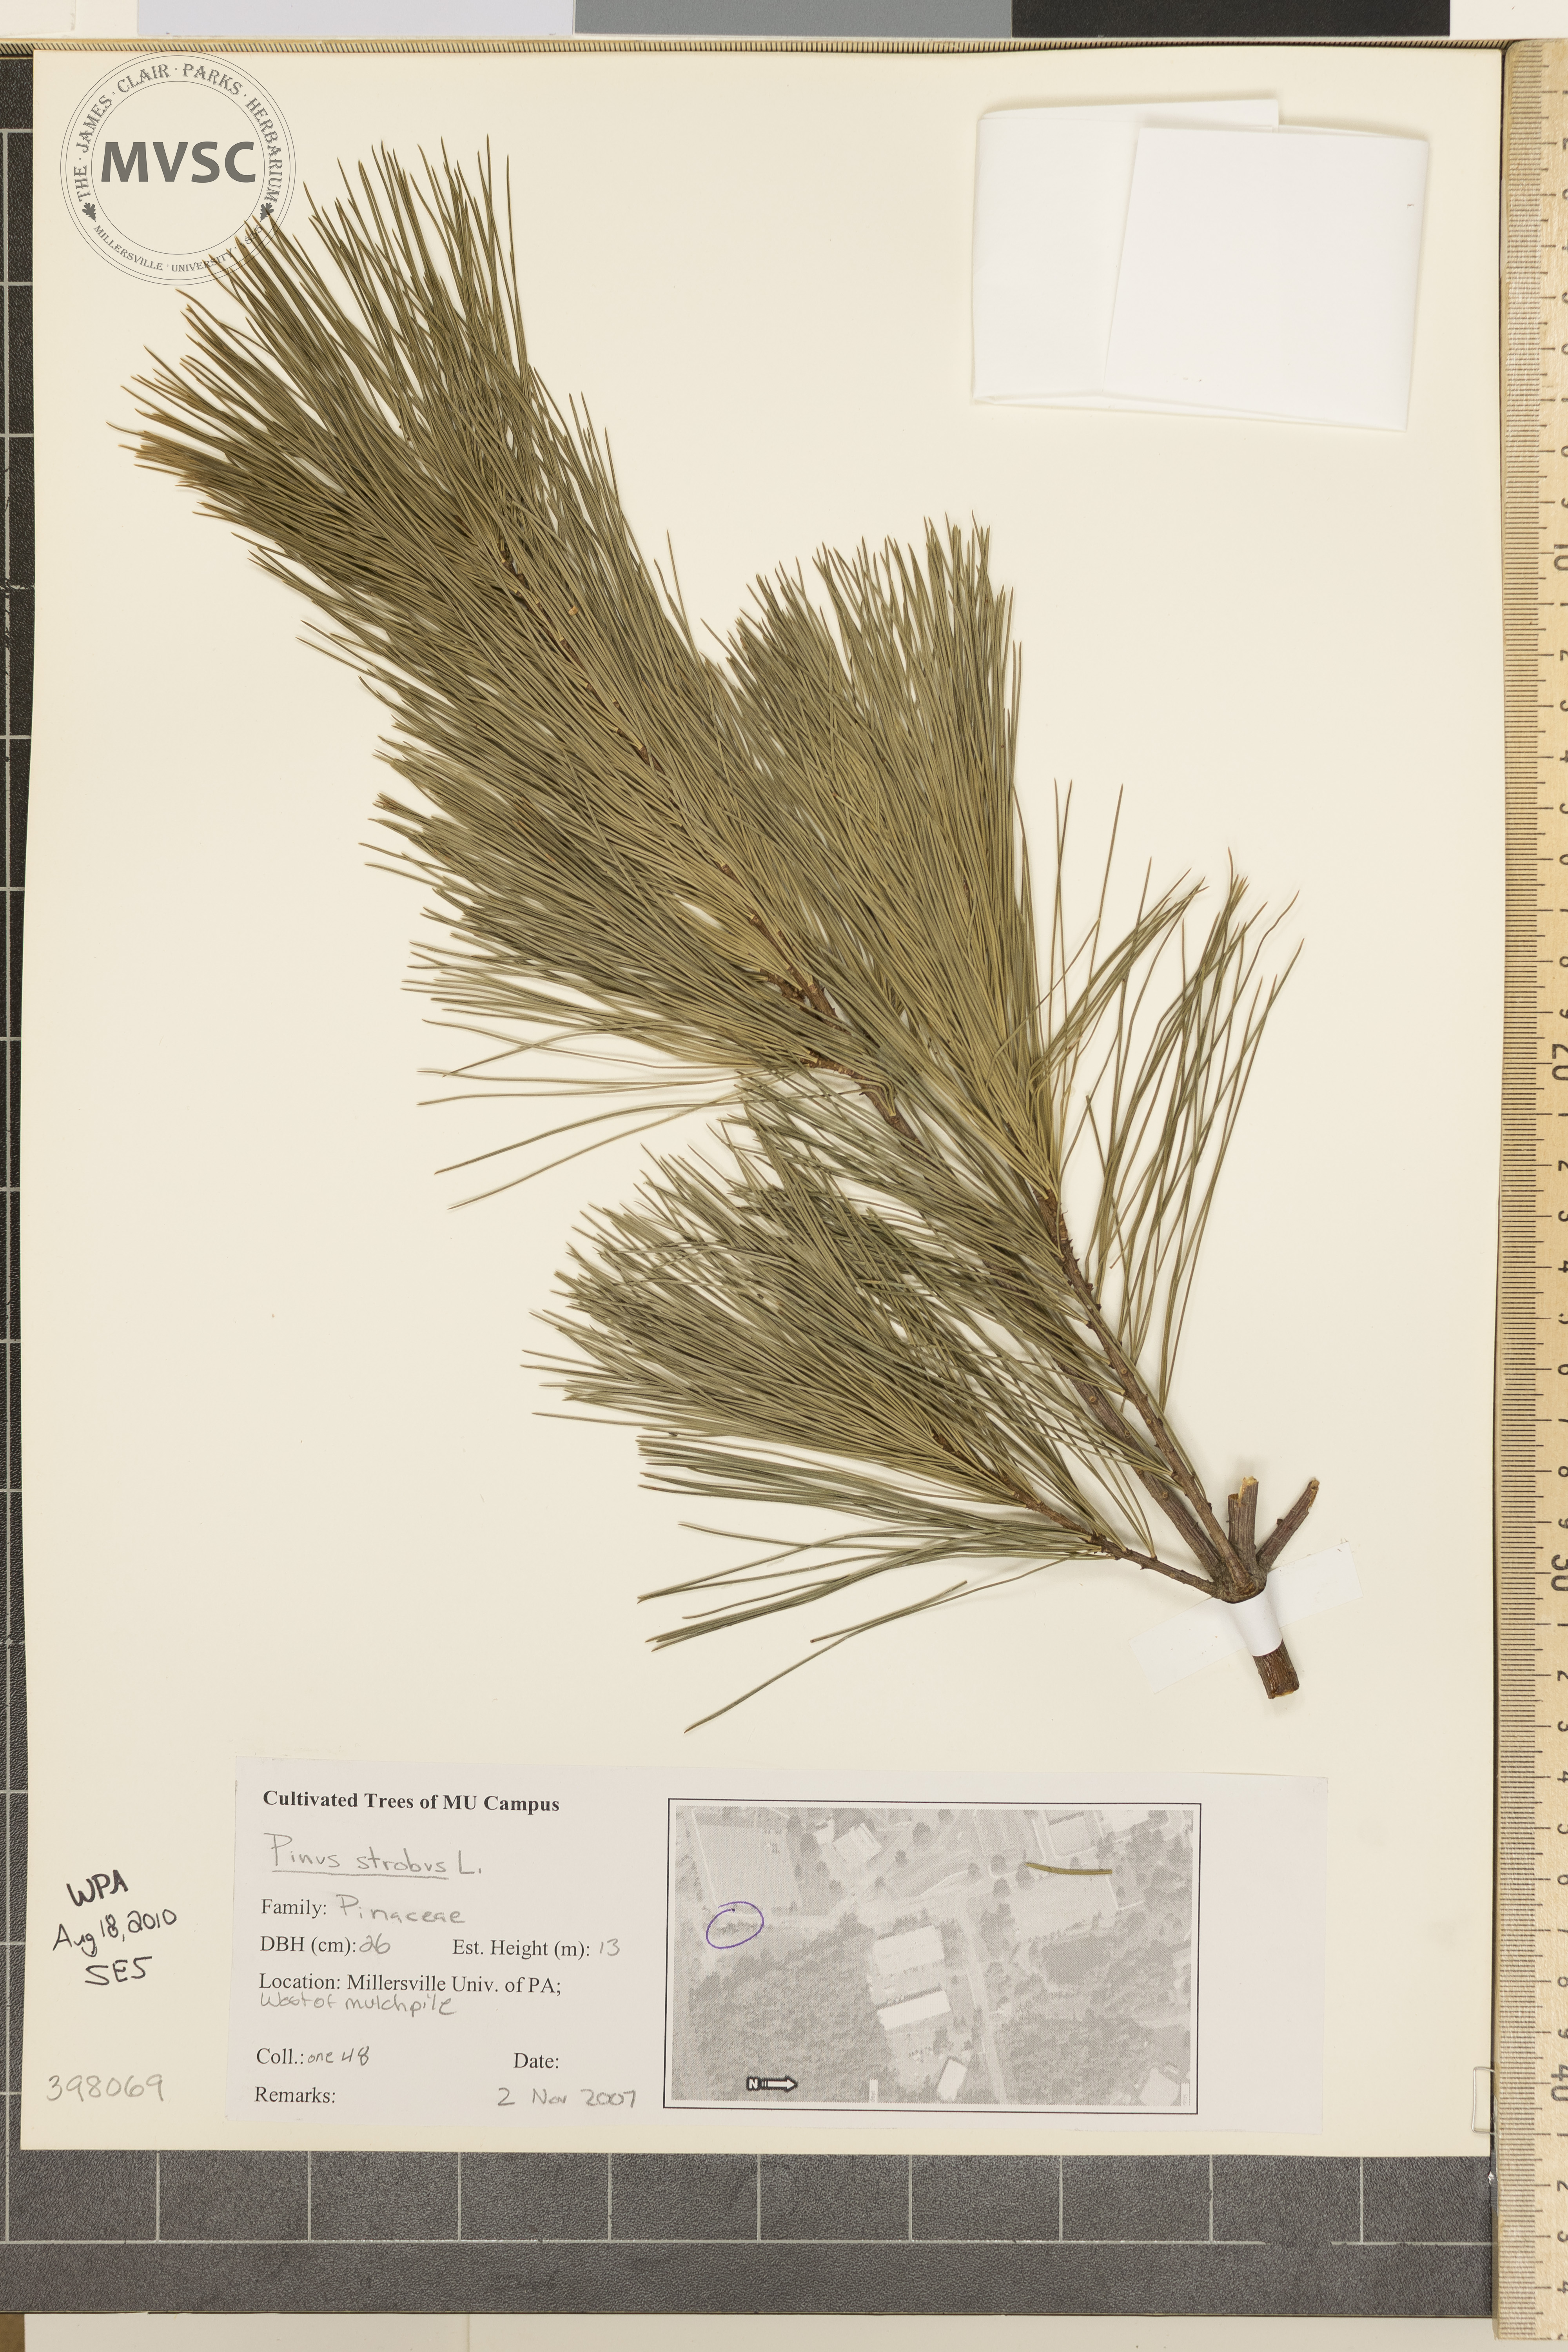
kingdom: Plantae
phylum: Tracheophyta
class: Pinopsida
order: Pinales
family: Pinaceae
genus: Pinus
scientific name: Pinus strobus
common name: Eastern white pine
